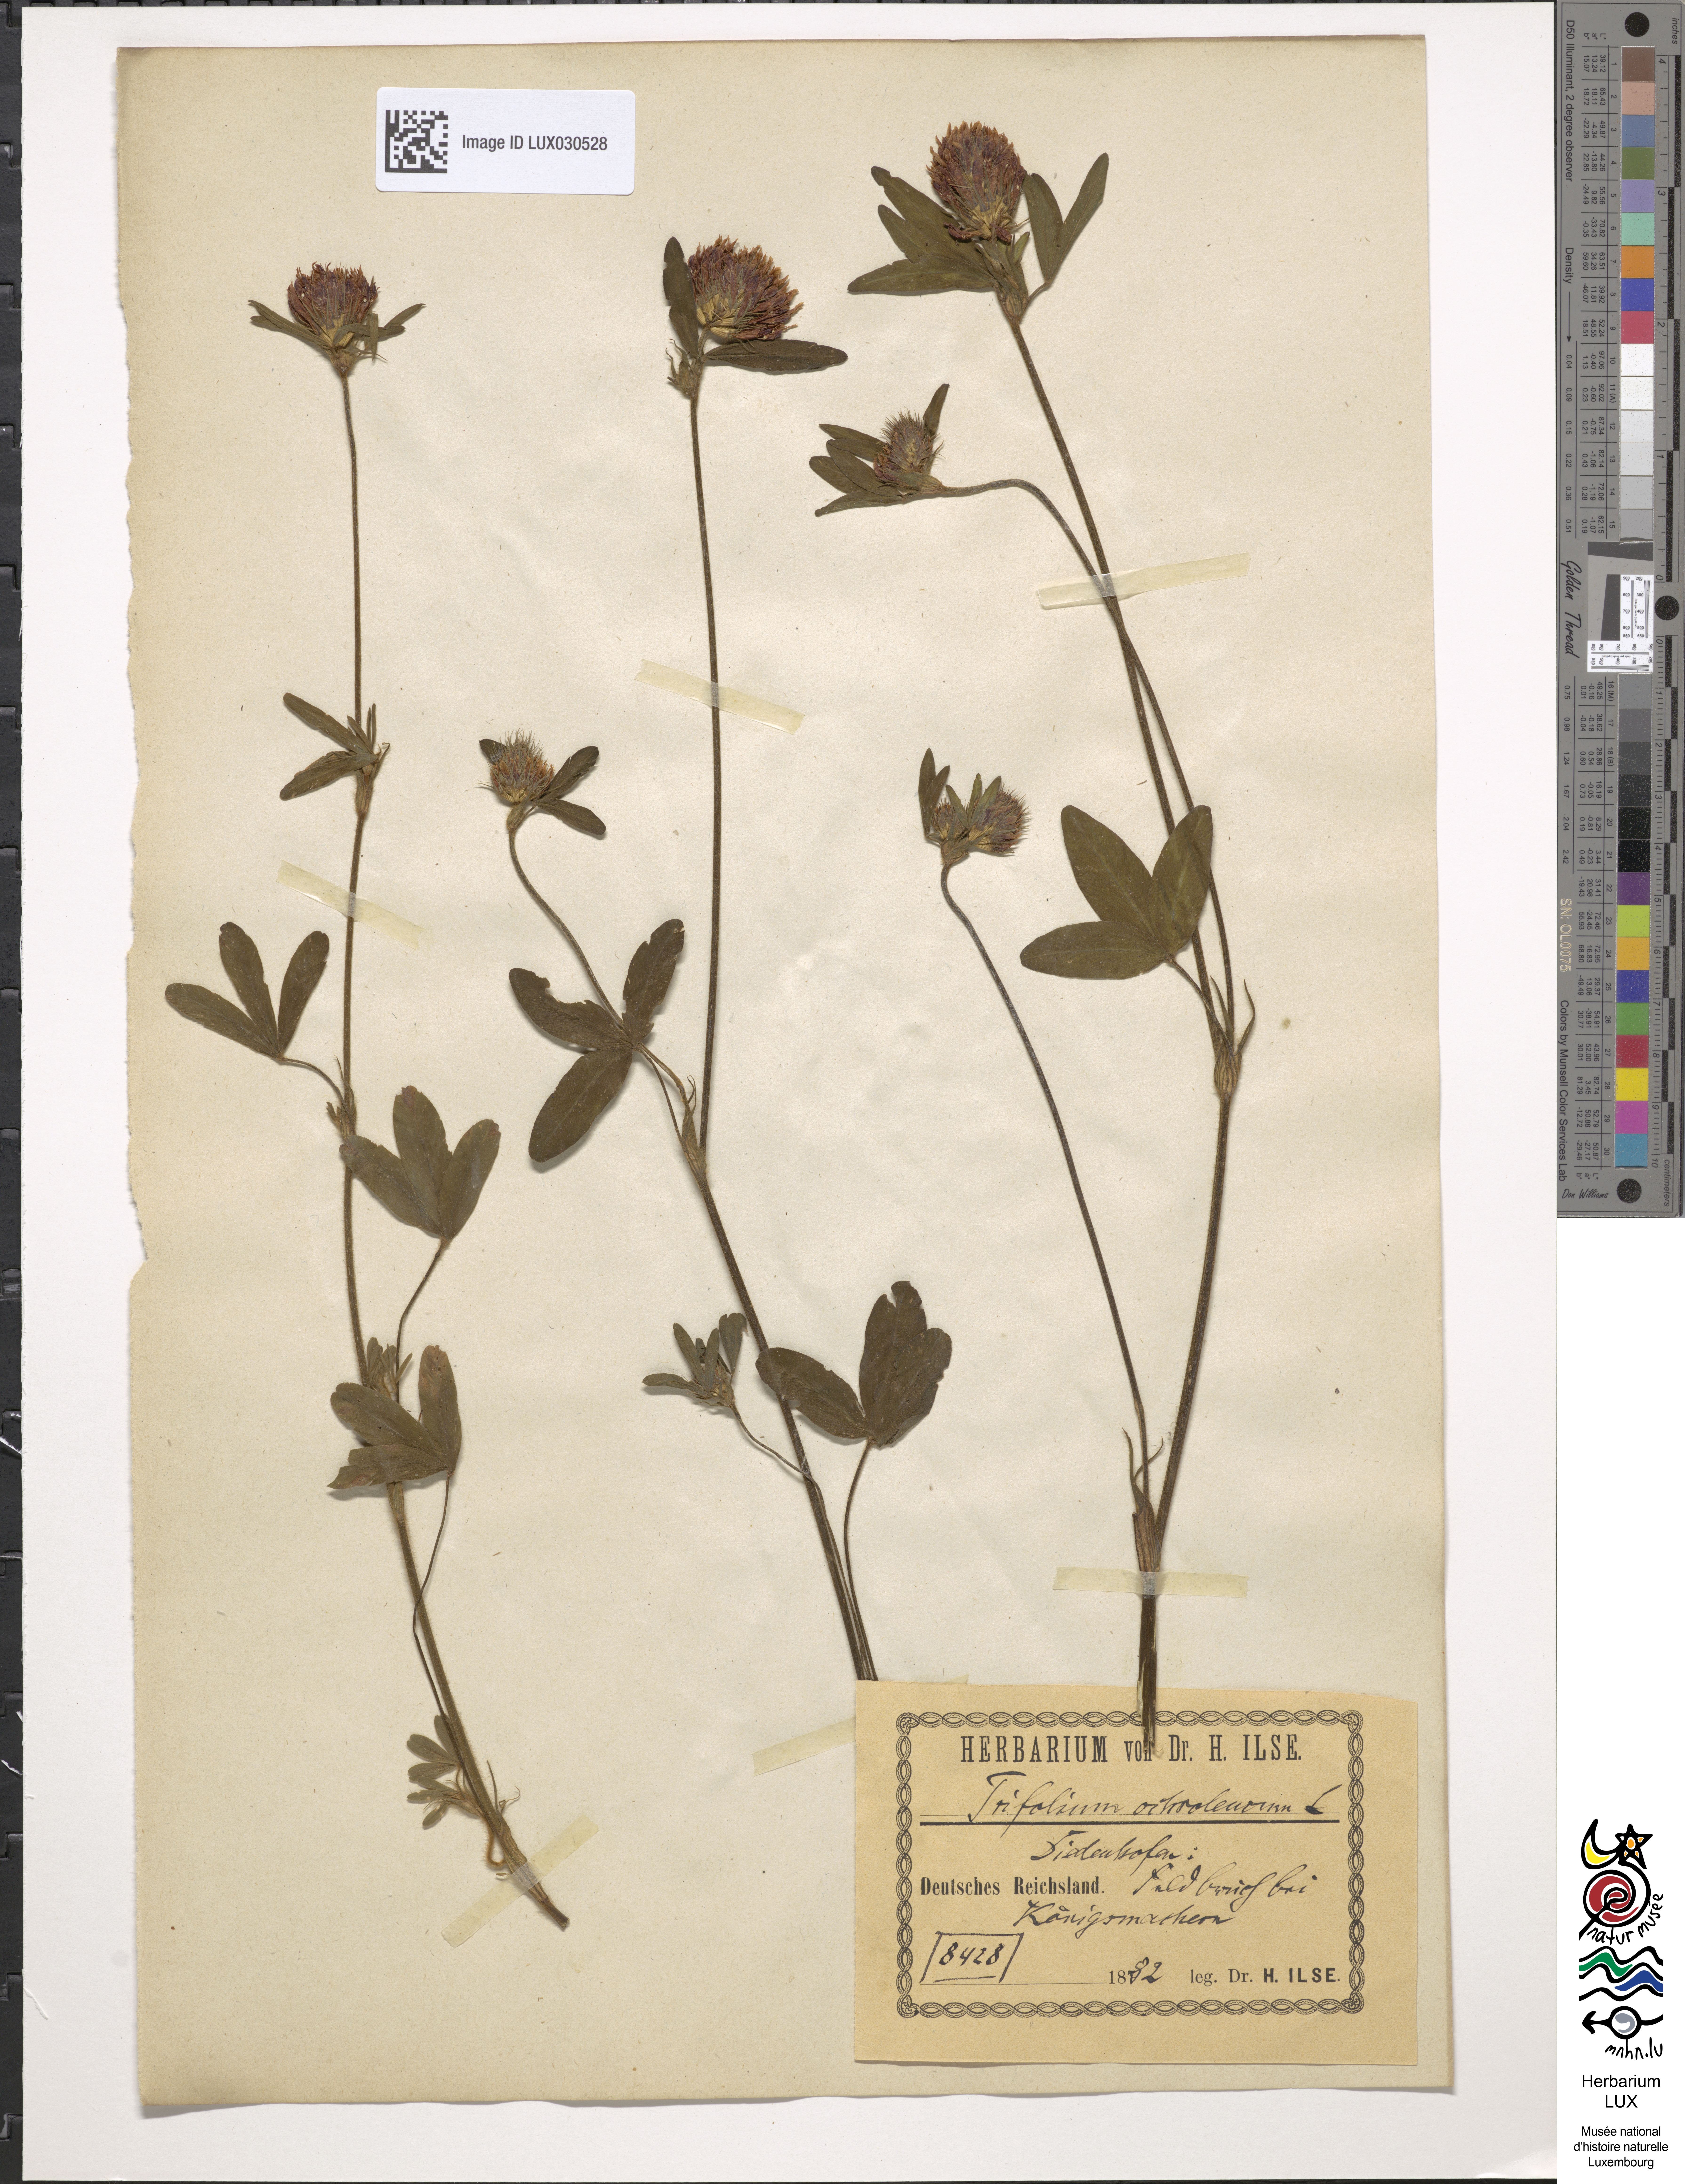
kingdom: Plantae
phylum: Tracheophyta
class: Magnoliopsida
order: Fabales
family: Fabaceae
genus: Trifolium
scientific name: Trifolium ochroleucon
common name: Sulphur clover
